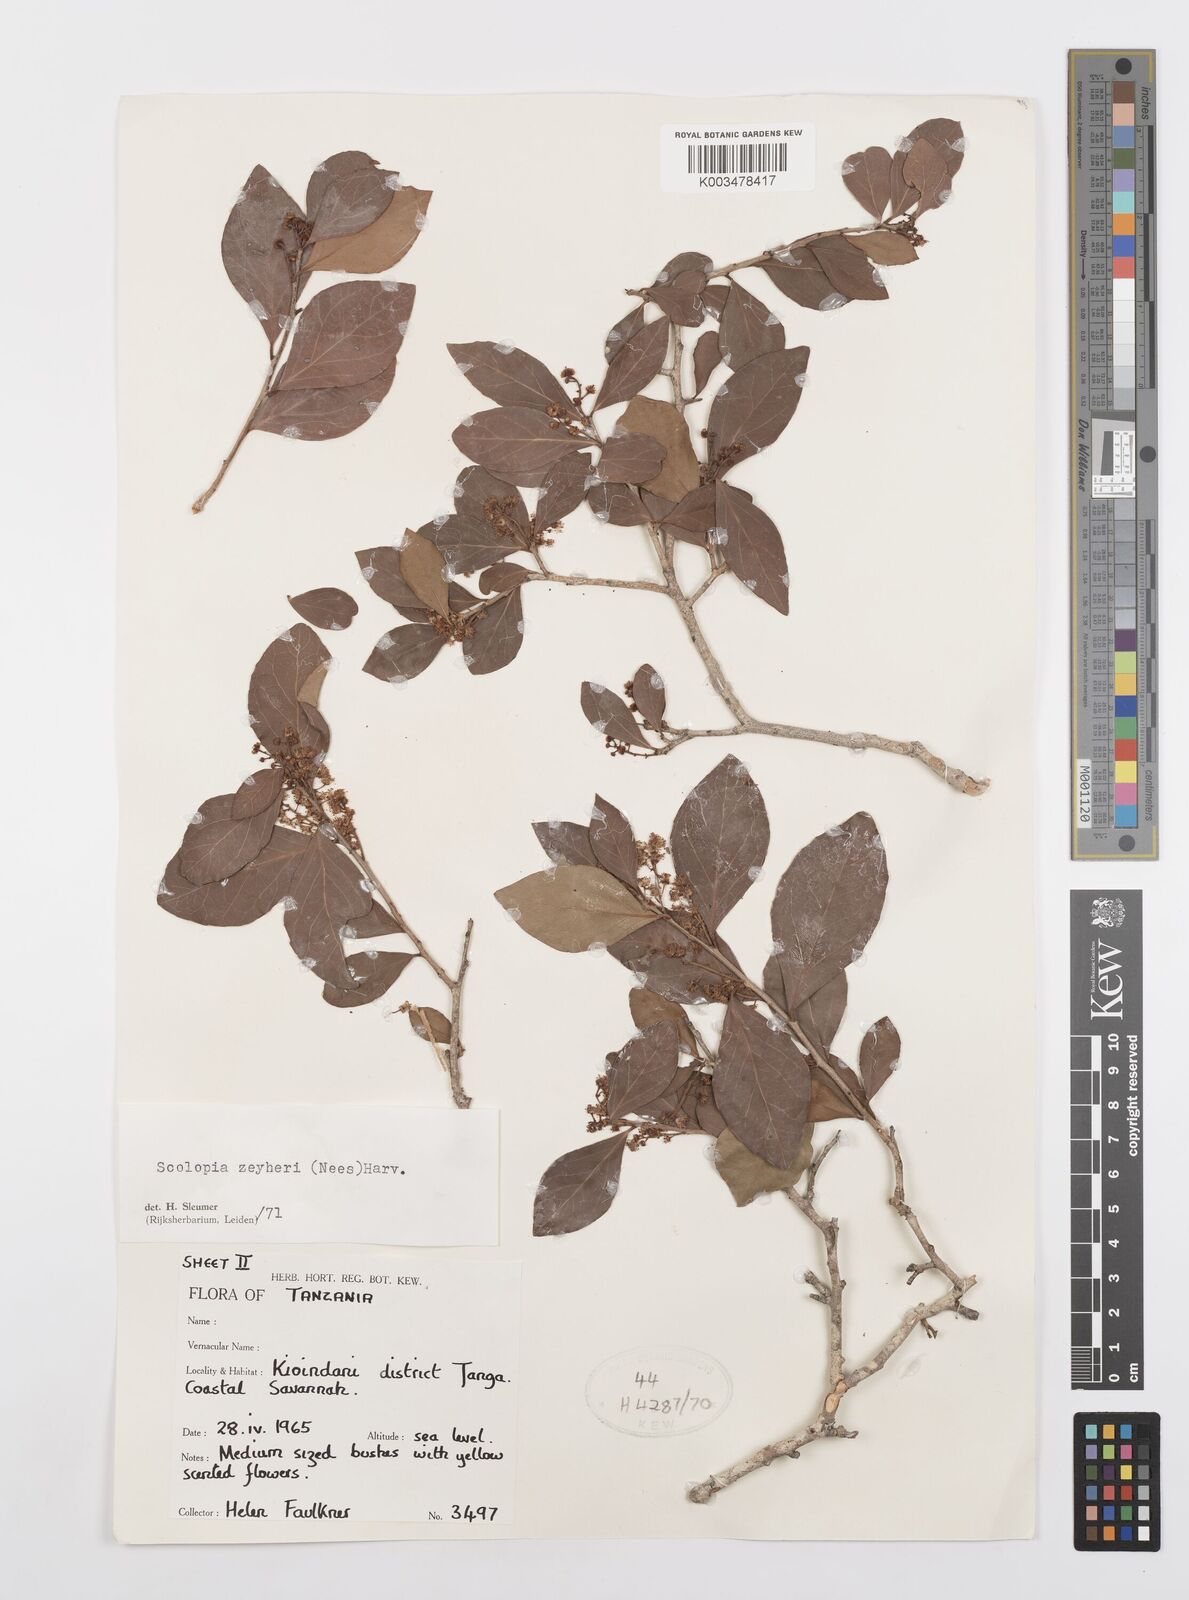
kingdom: Plantae
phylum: Tracheophyta
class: Magnoliopsida
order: Malpighiales
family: Salicaceae
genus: Scolopia
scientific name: Scolopia zeyheri
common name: Thorn pear
